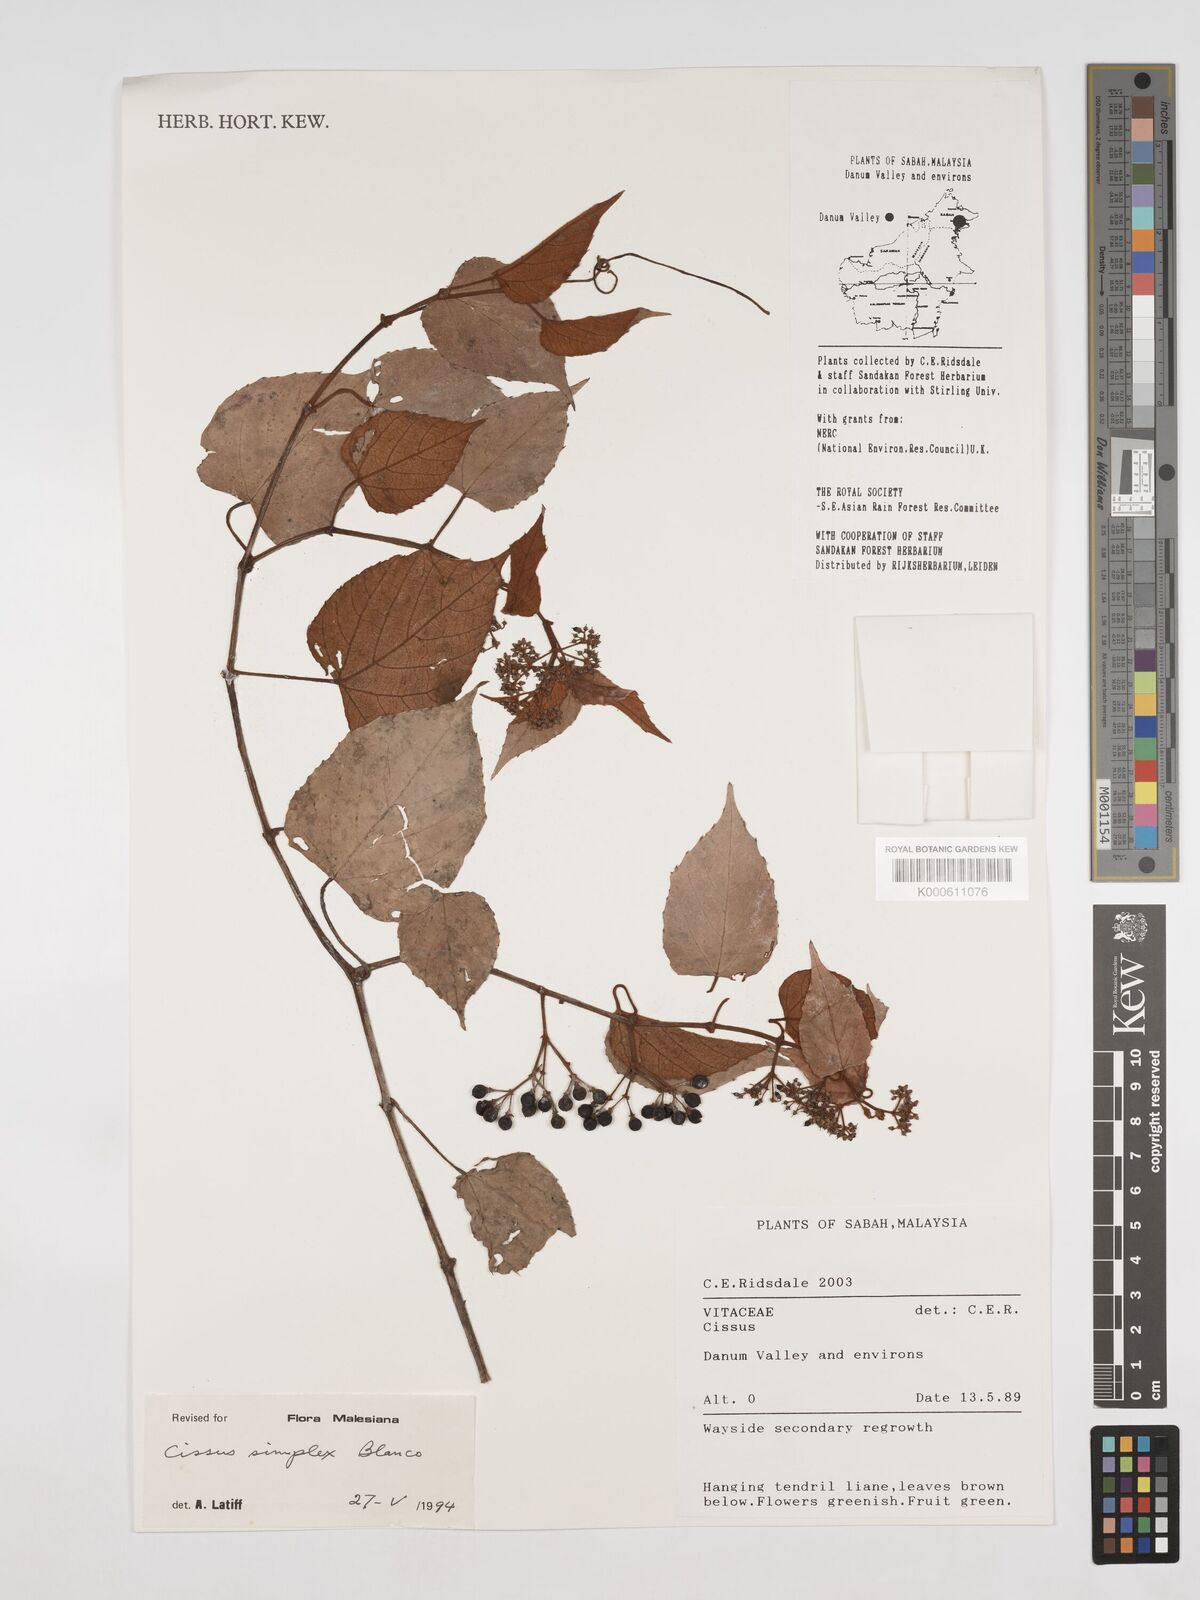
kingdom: Plantae
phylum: Tracheophyta
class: Magnoliopsida
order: Vitales
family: Vitaceae
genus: Cissus
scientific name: Cissus aristata
